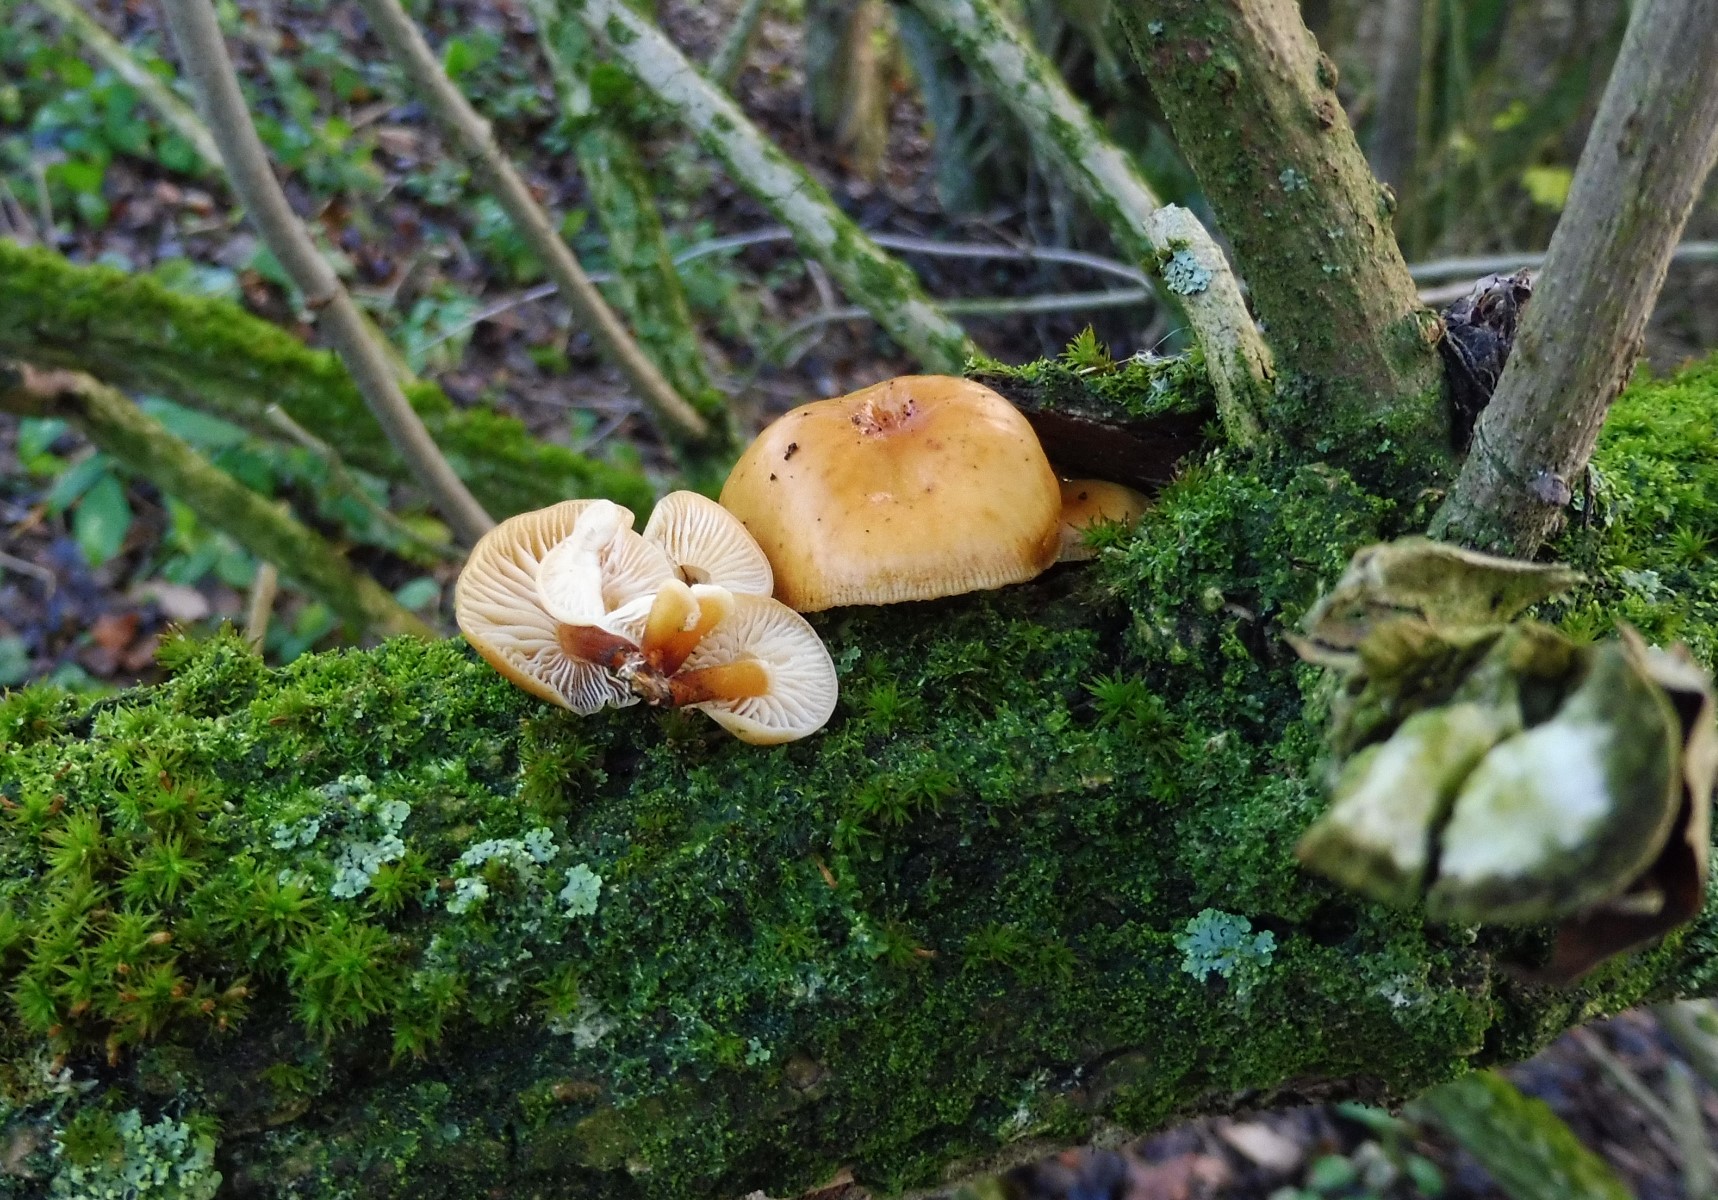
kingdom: Fungi
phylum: Basidiomycota
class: Agaricomycetes
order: Agaricales
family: Physalacriaceae
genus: Flammulina
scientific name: Flammulina velutipes
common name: gul fløjlsfod
